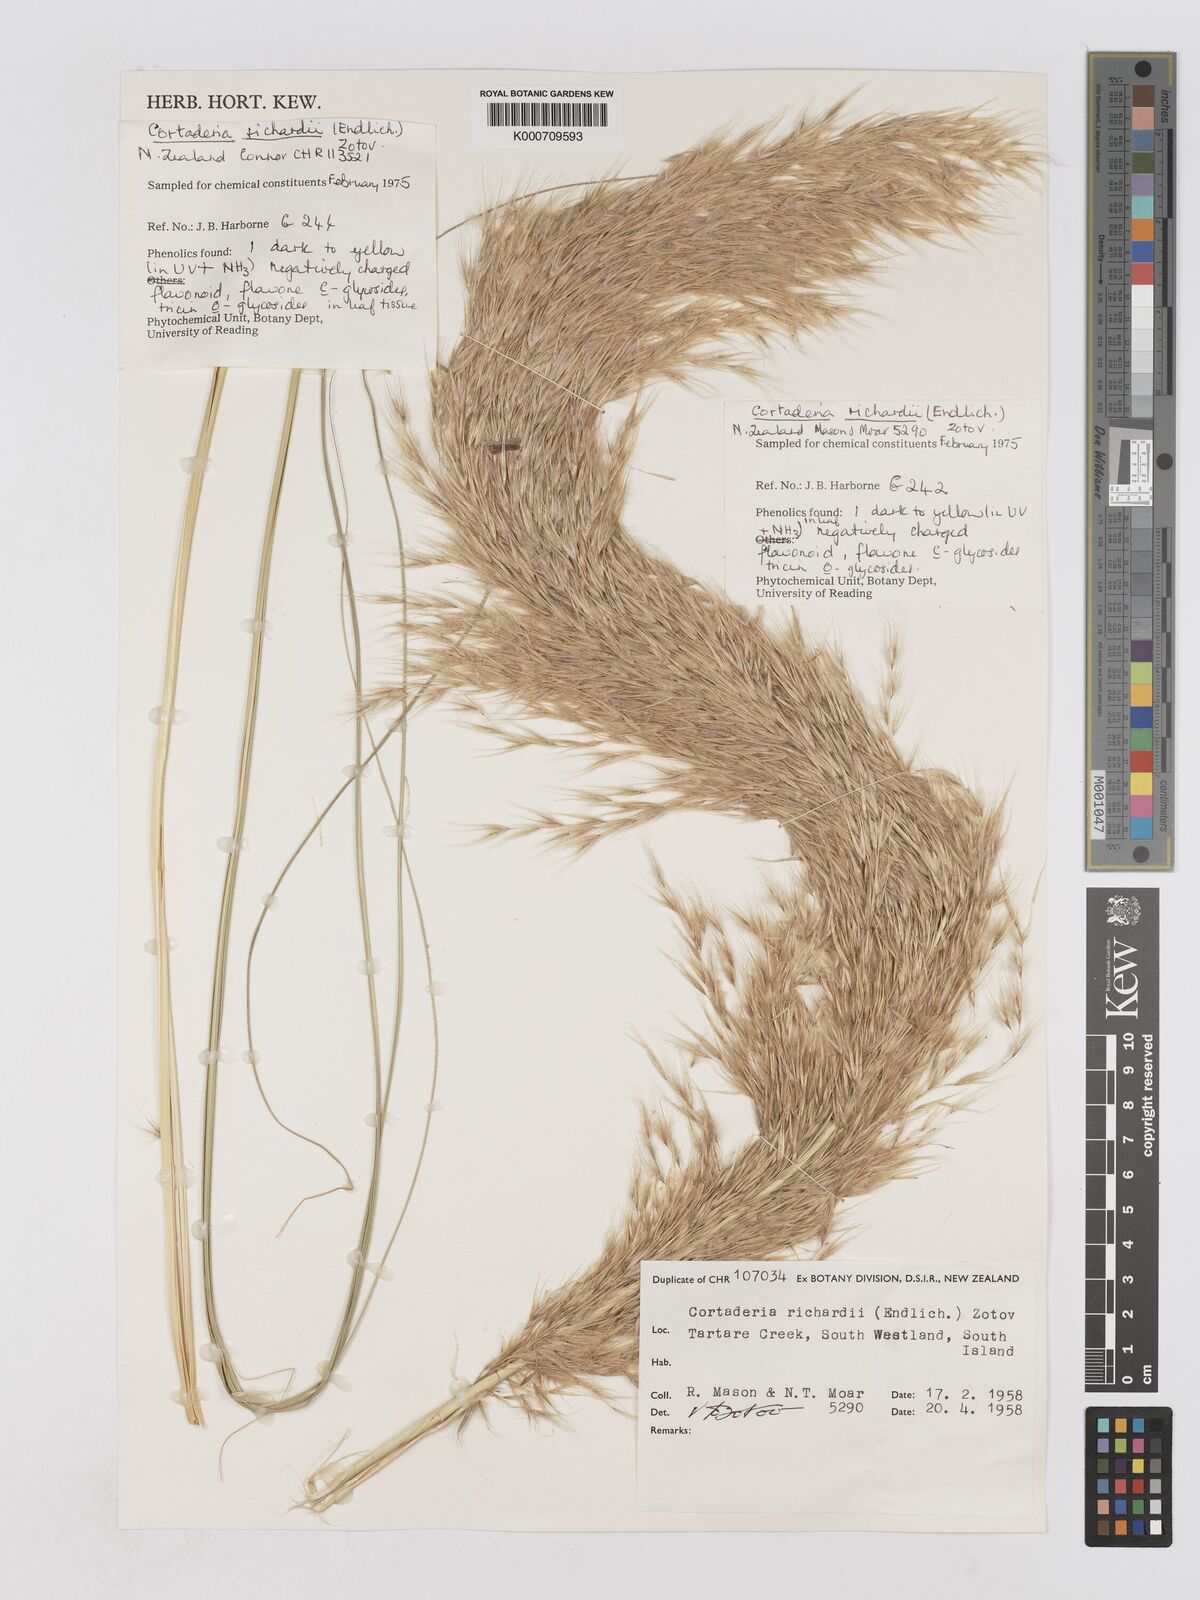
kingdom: Plantae
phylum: Tracheophyta
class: Liliopsida
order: Poales
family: Poaceae
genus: Austroderia
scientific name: Austroderia richardii
